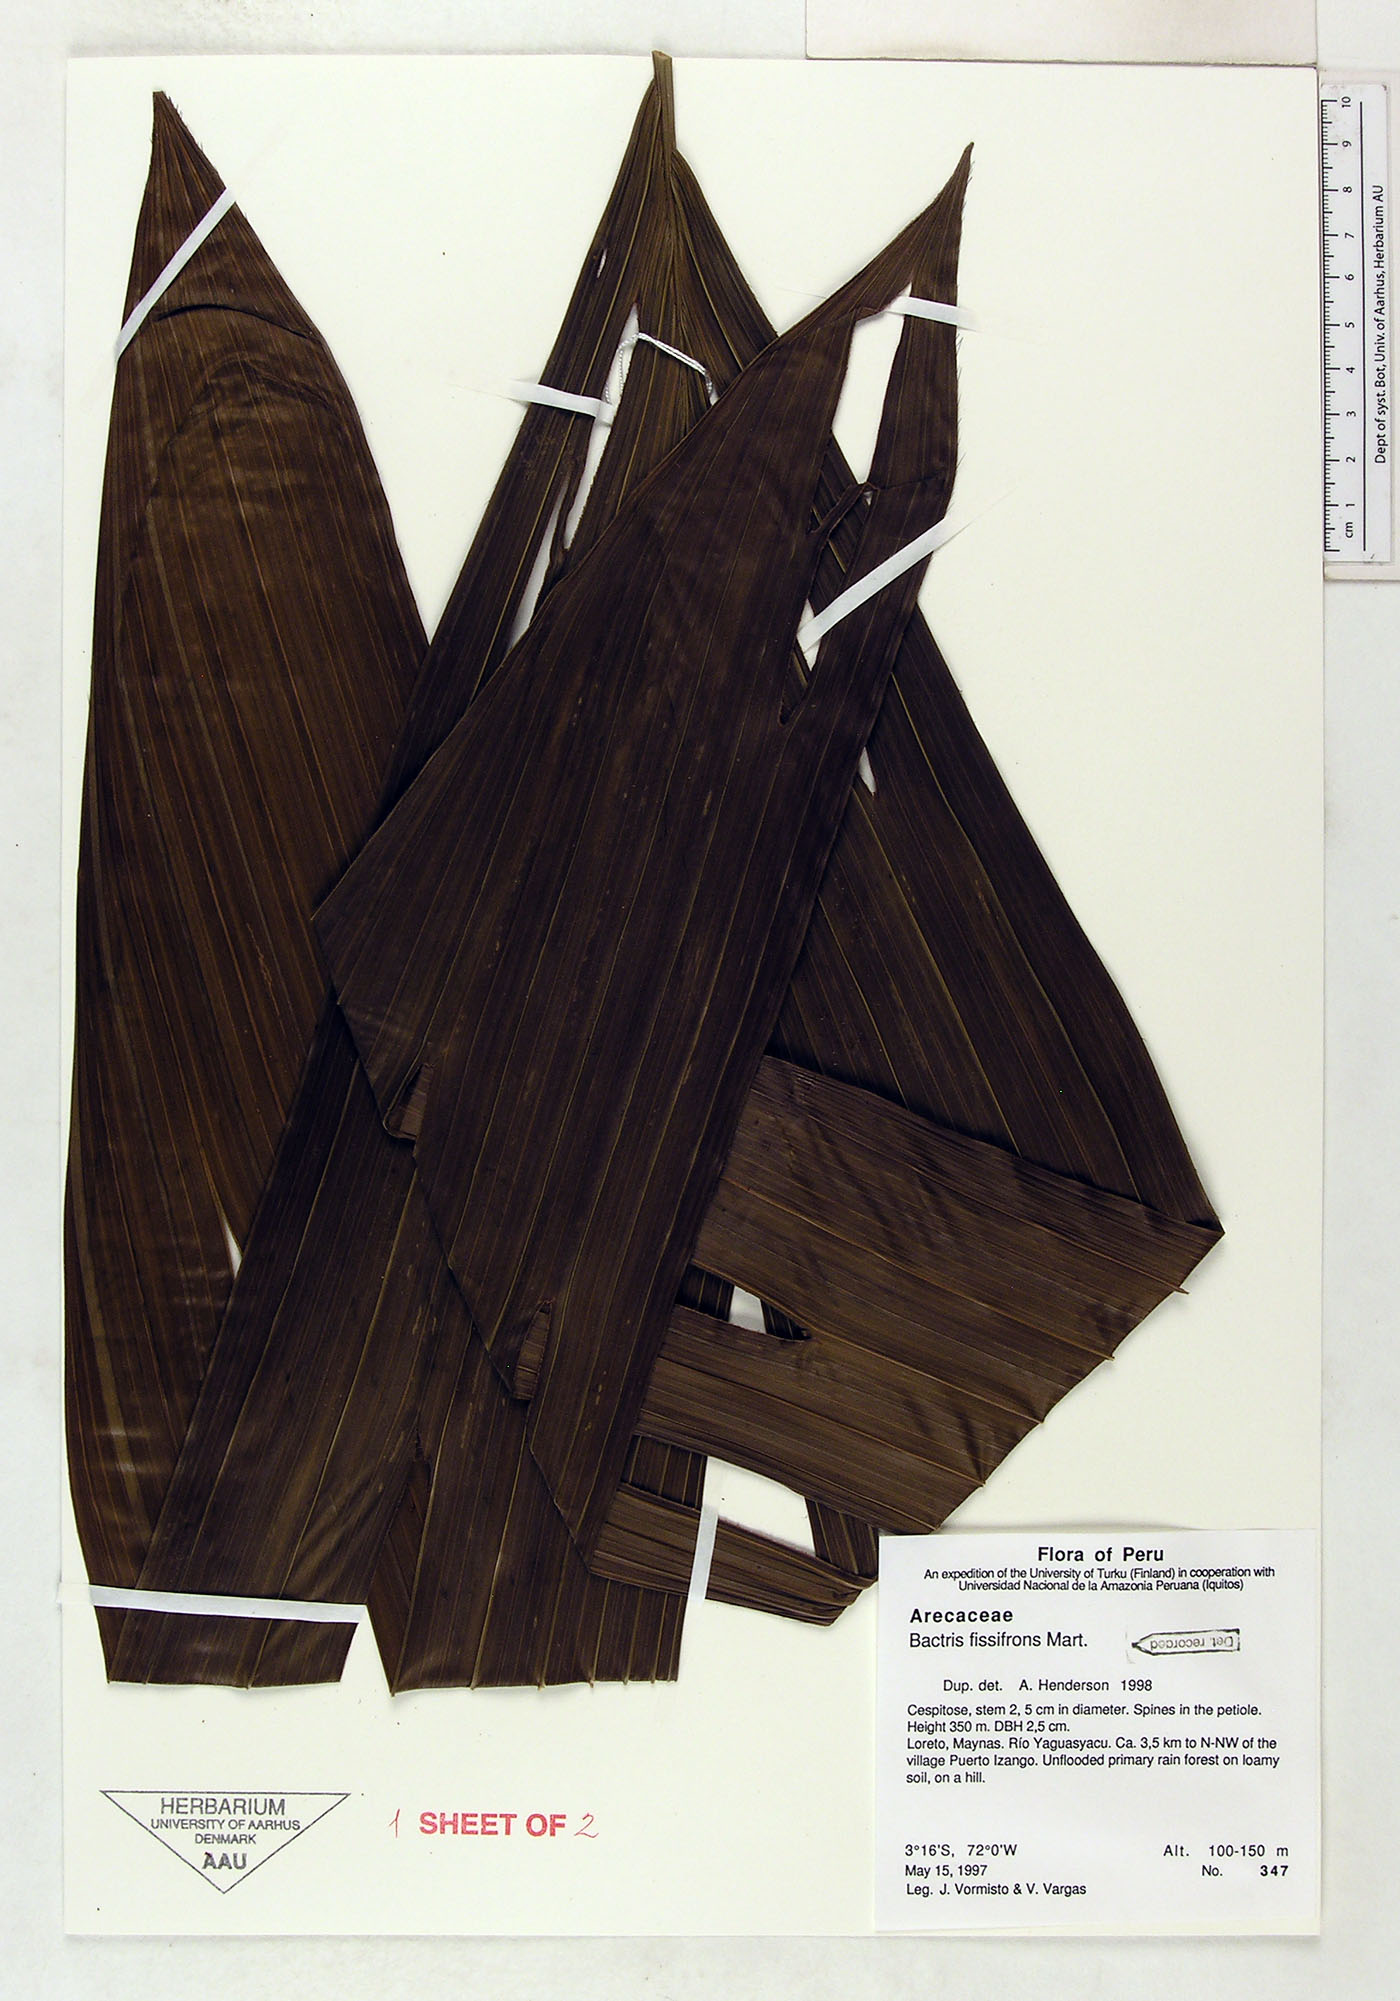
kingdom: Plantae
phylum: Tracheophyta
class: Liliopsida
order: Arecales
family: Arecaceae
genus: Bactris
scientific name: Bactris fissifrons
